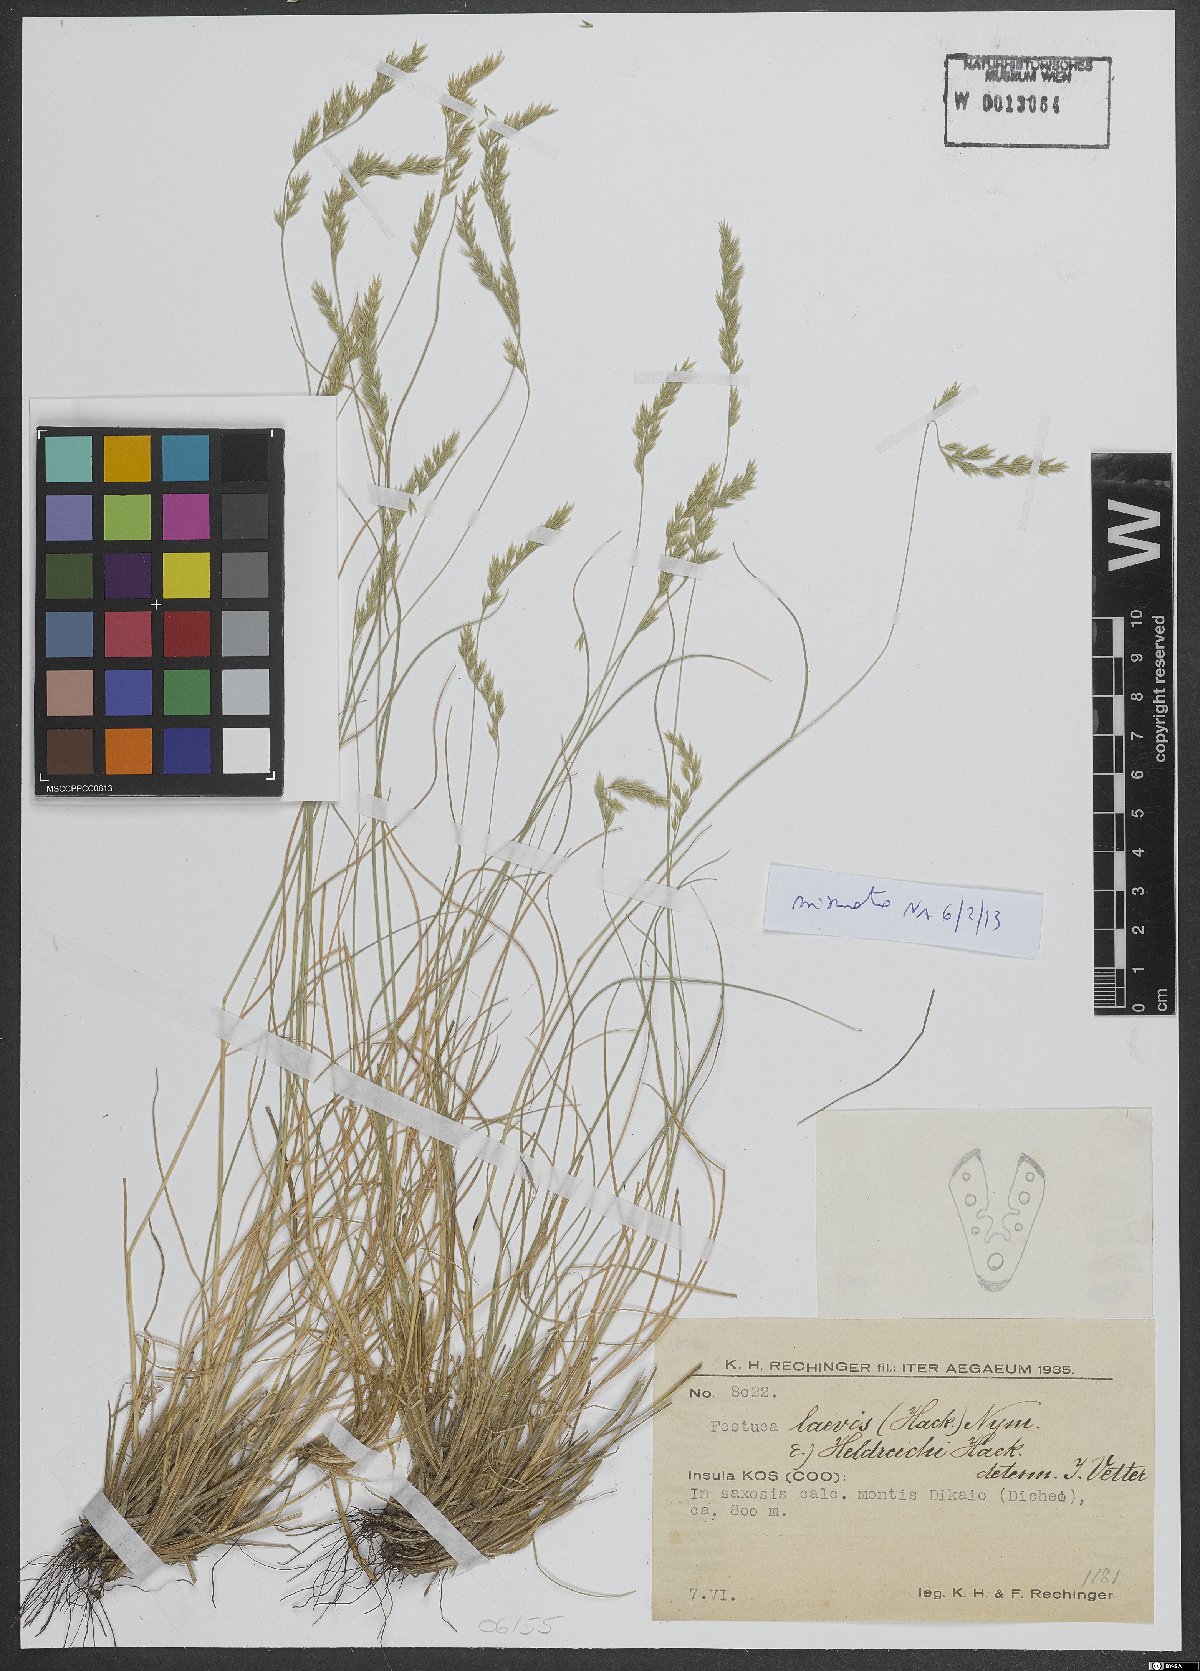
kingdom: Plantae
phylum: Tracheophyta
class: Liliopsida
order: Poales
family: Poaceae
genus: Festuca
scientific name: Festuca laevis
